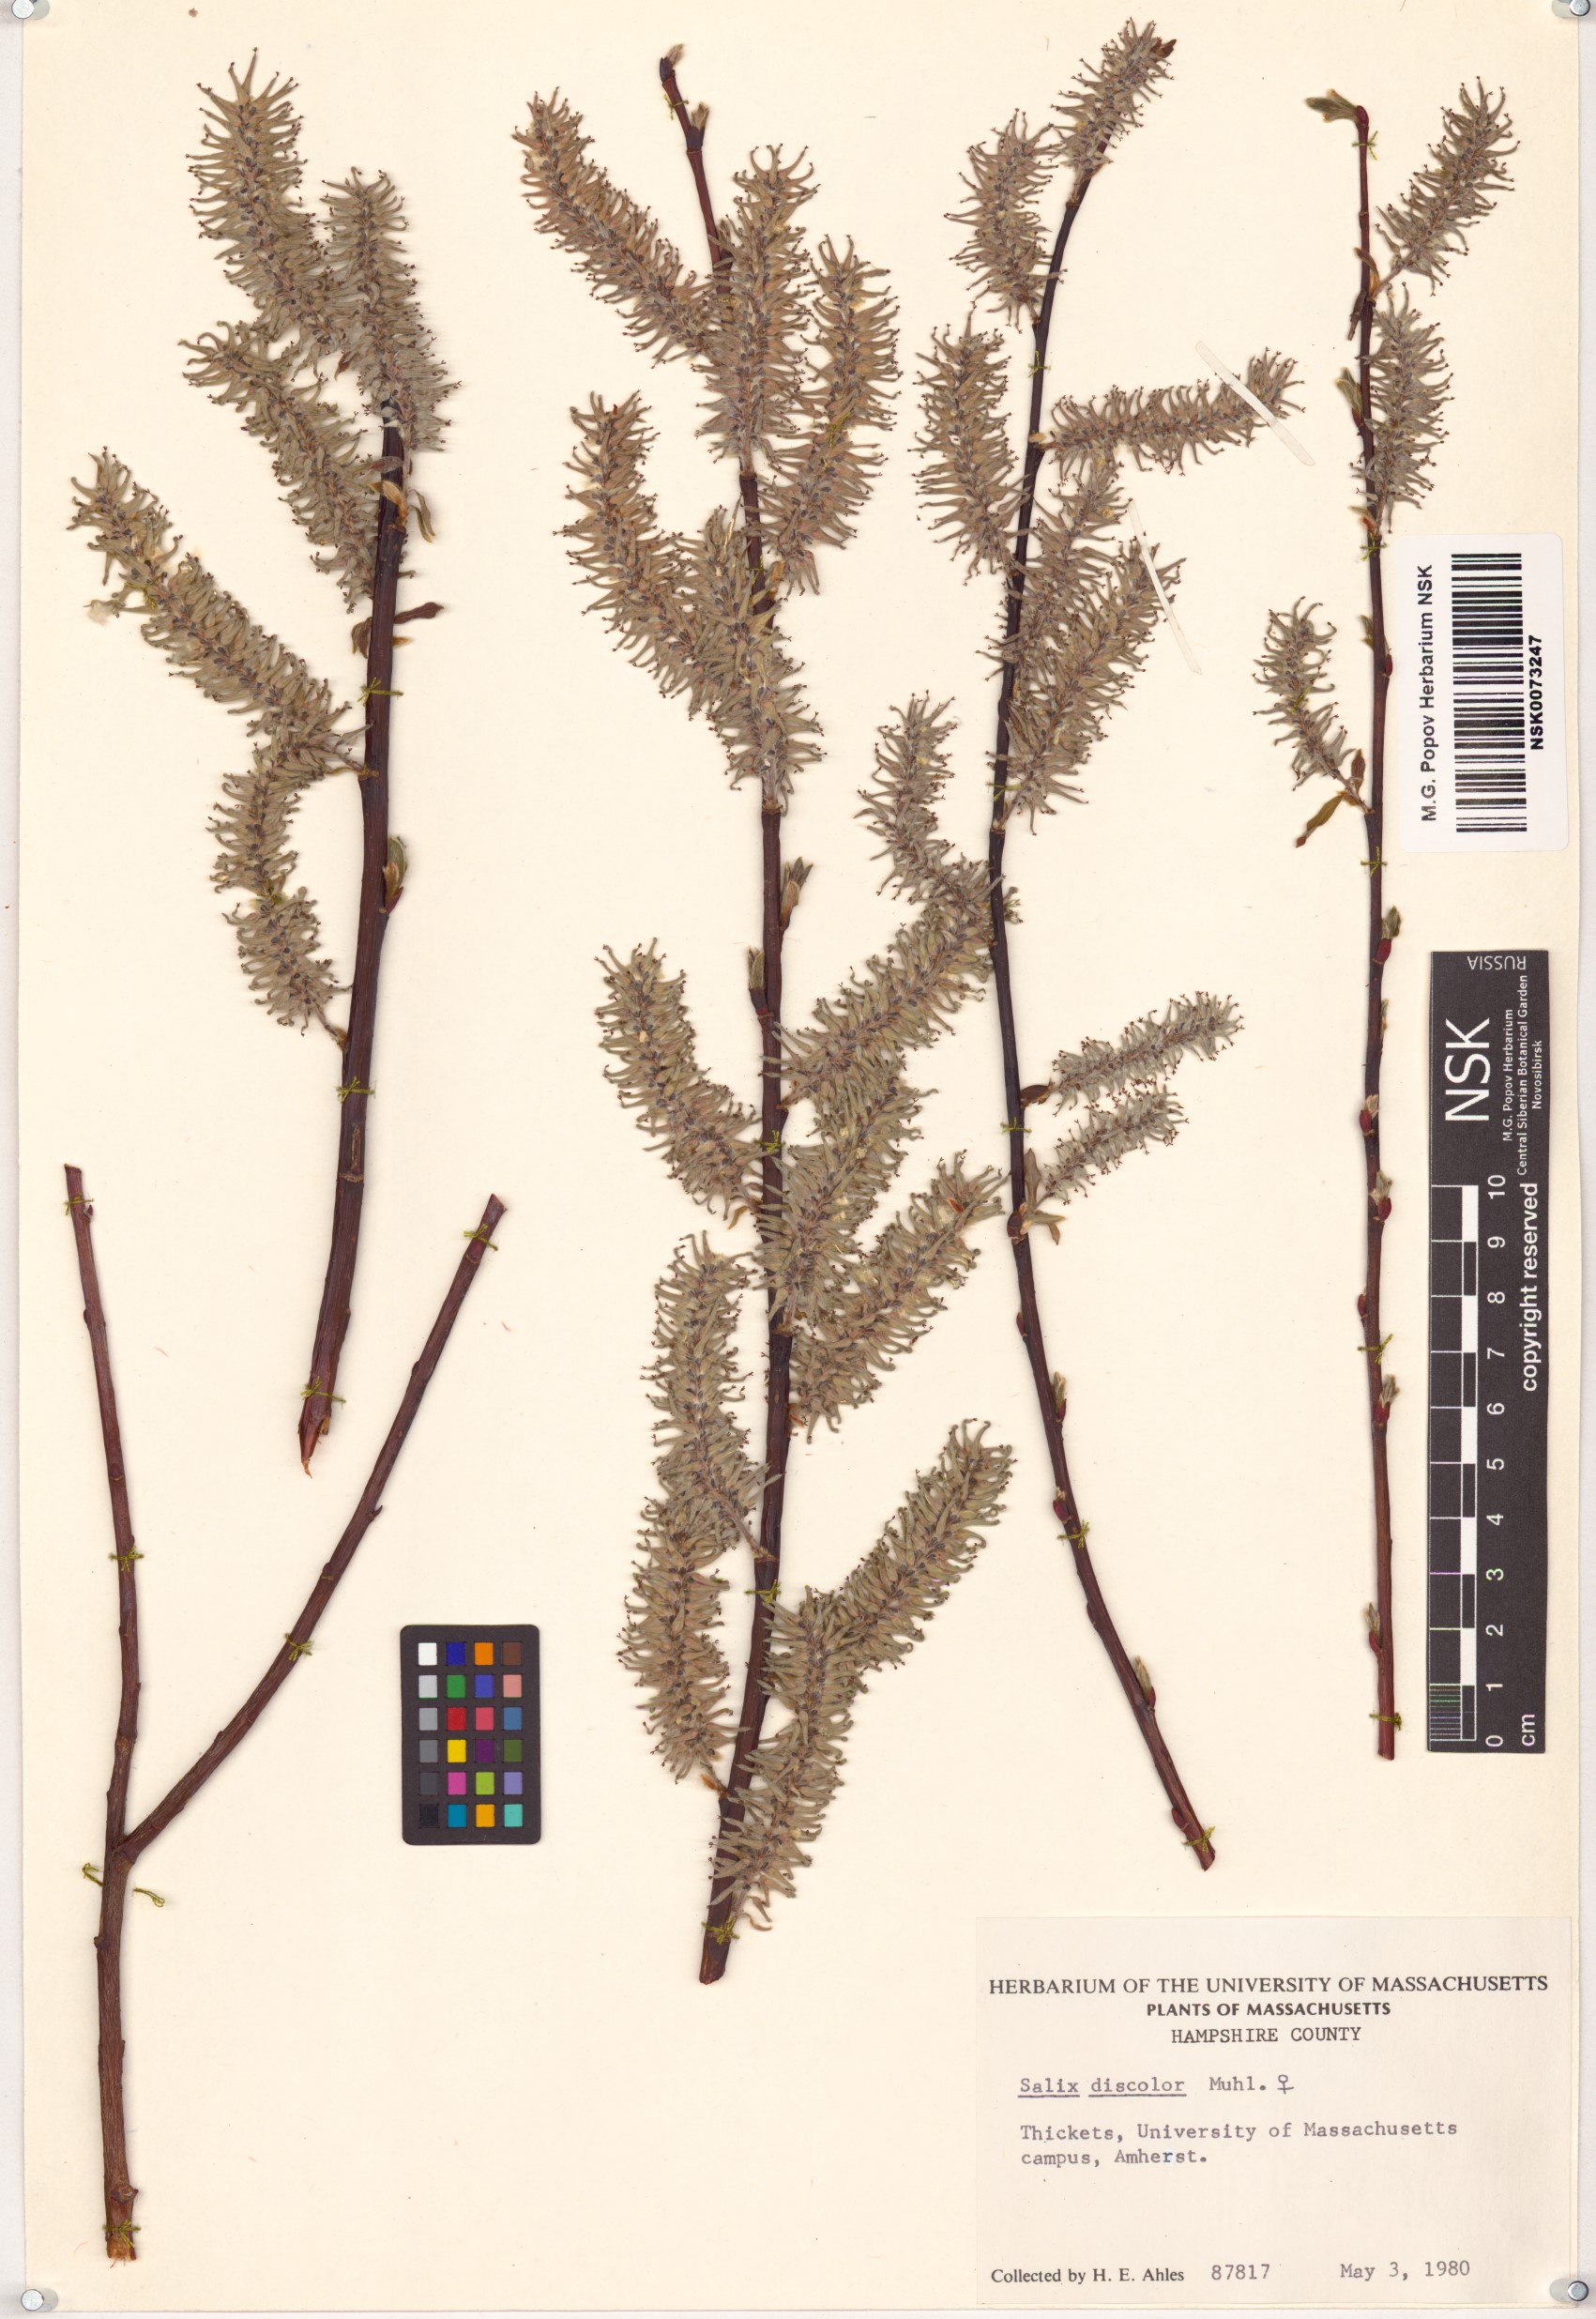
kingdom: Plantae
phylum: Tracheophyta
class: Magnoliopsida
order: Malpighiales
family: Salicaceae
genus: Salix
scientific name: Salix discolor
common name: Glaucous willow
